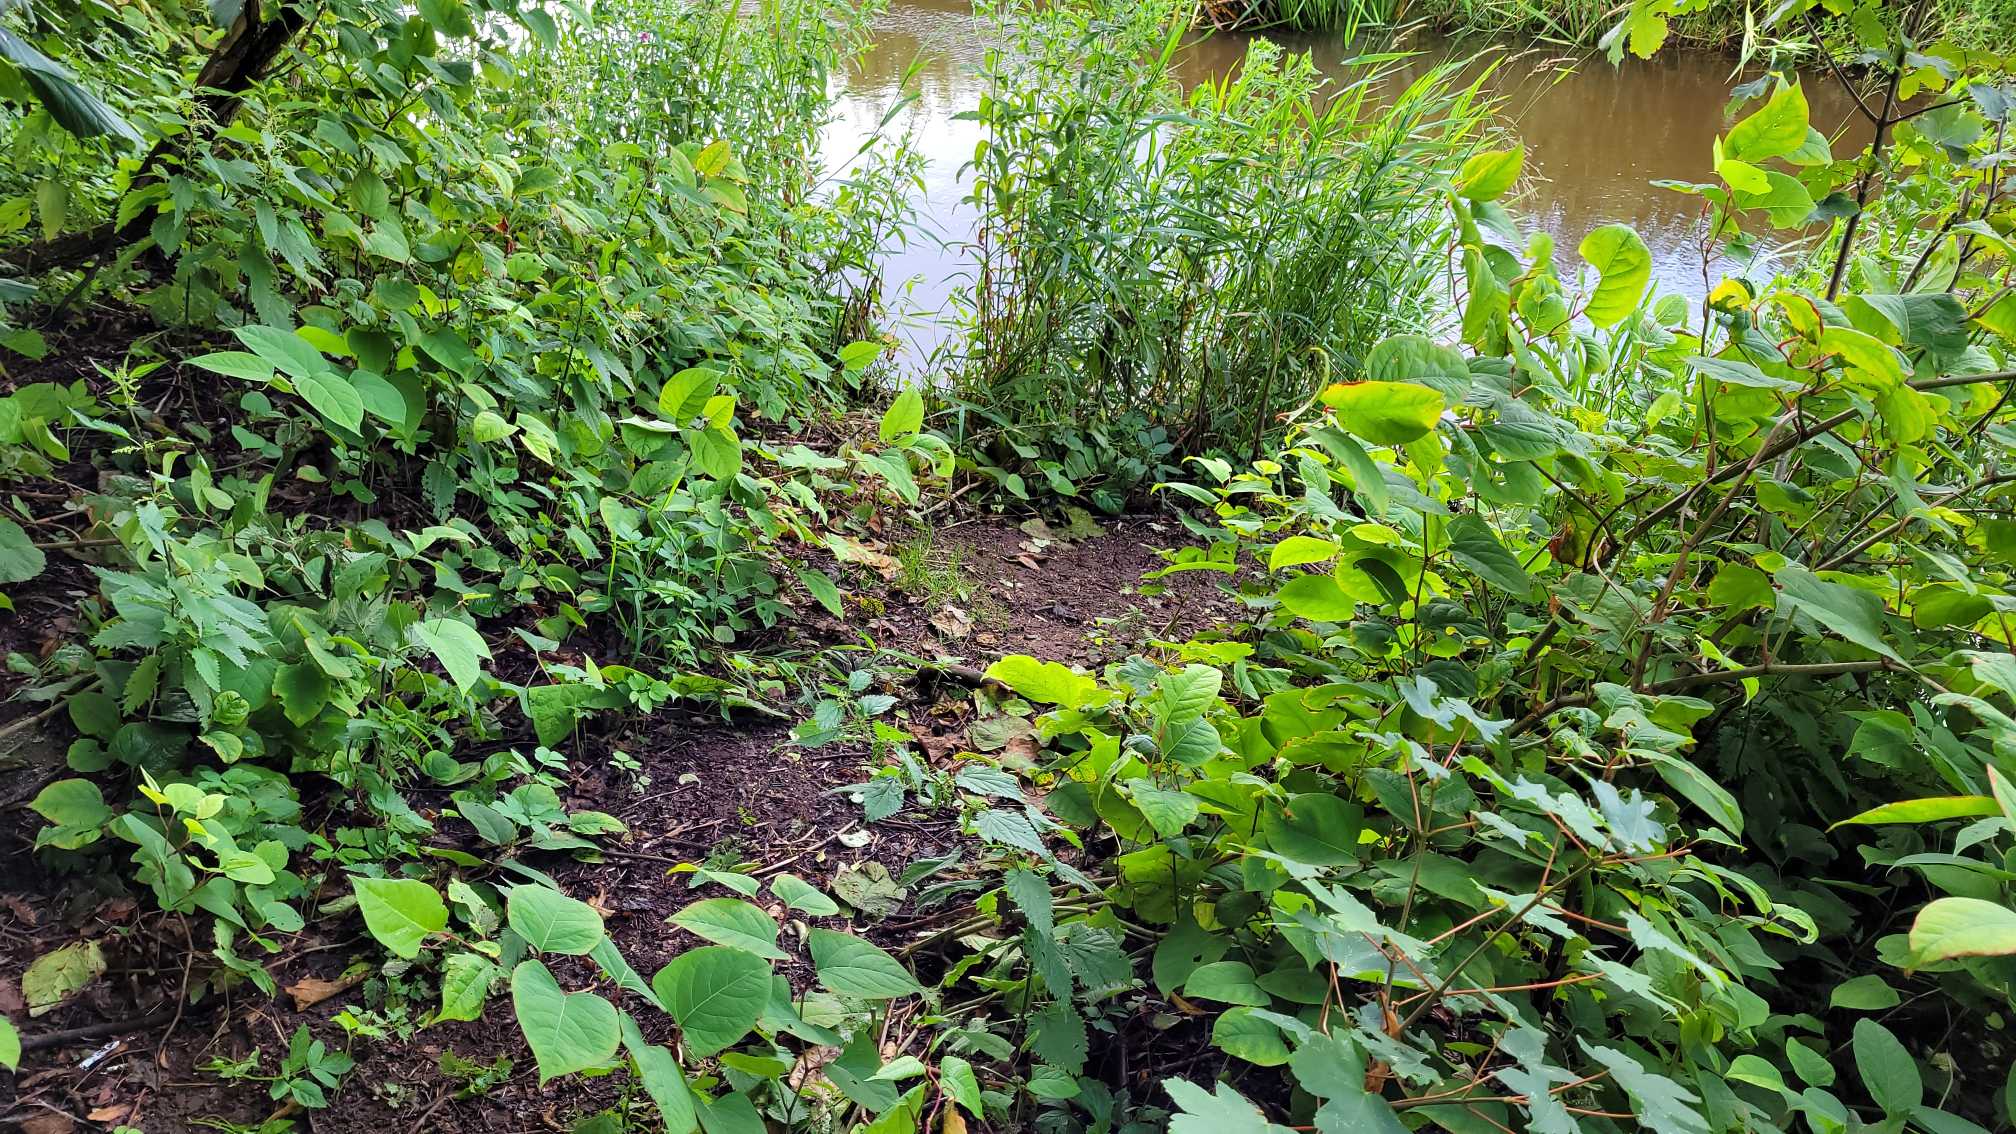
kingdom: Plantae
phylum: Tracheophyta
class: Magnoliopsida
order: Caryophyllales
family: Polygonaceae
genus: Reynoutria
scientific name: Reynoutria japonica
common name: Japan-pileurt
